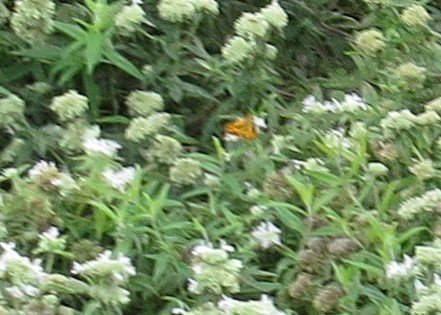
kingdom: Animalia
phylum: Arthropoda
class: Insecta
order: Lepidoptera
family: Hesperiidae
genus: Hylephila
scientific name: Hylephila phyleus
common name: Fiery Skipper
